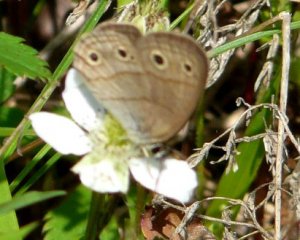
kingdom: Animalia
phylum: Arthropoda
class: Insecta
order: Lepidoptera
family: Nymphalidae
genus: Euptychia
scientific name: Euptychia cymela
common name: Little Wood Satyr
